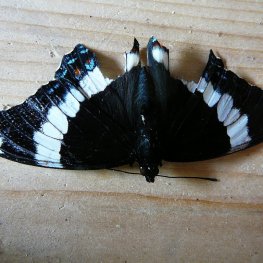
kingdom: Animalia
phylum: Arthropoda
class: Insecta
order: Lepidoptera
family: Nymphalidae
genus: Limenitis
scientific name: Limenitis arthemis
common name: Red-spotted Admiral
